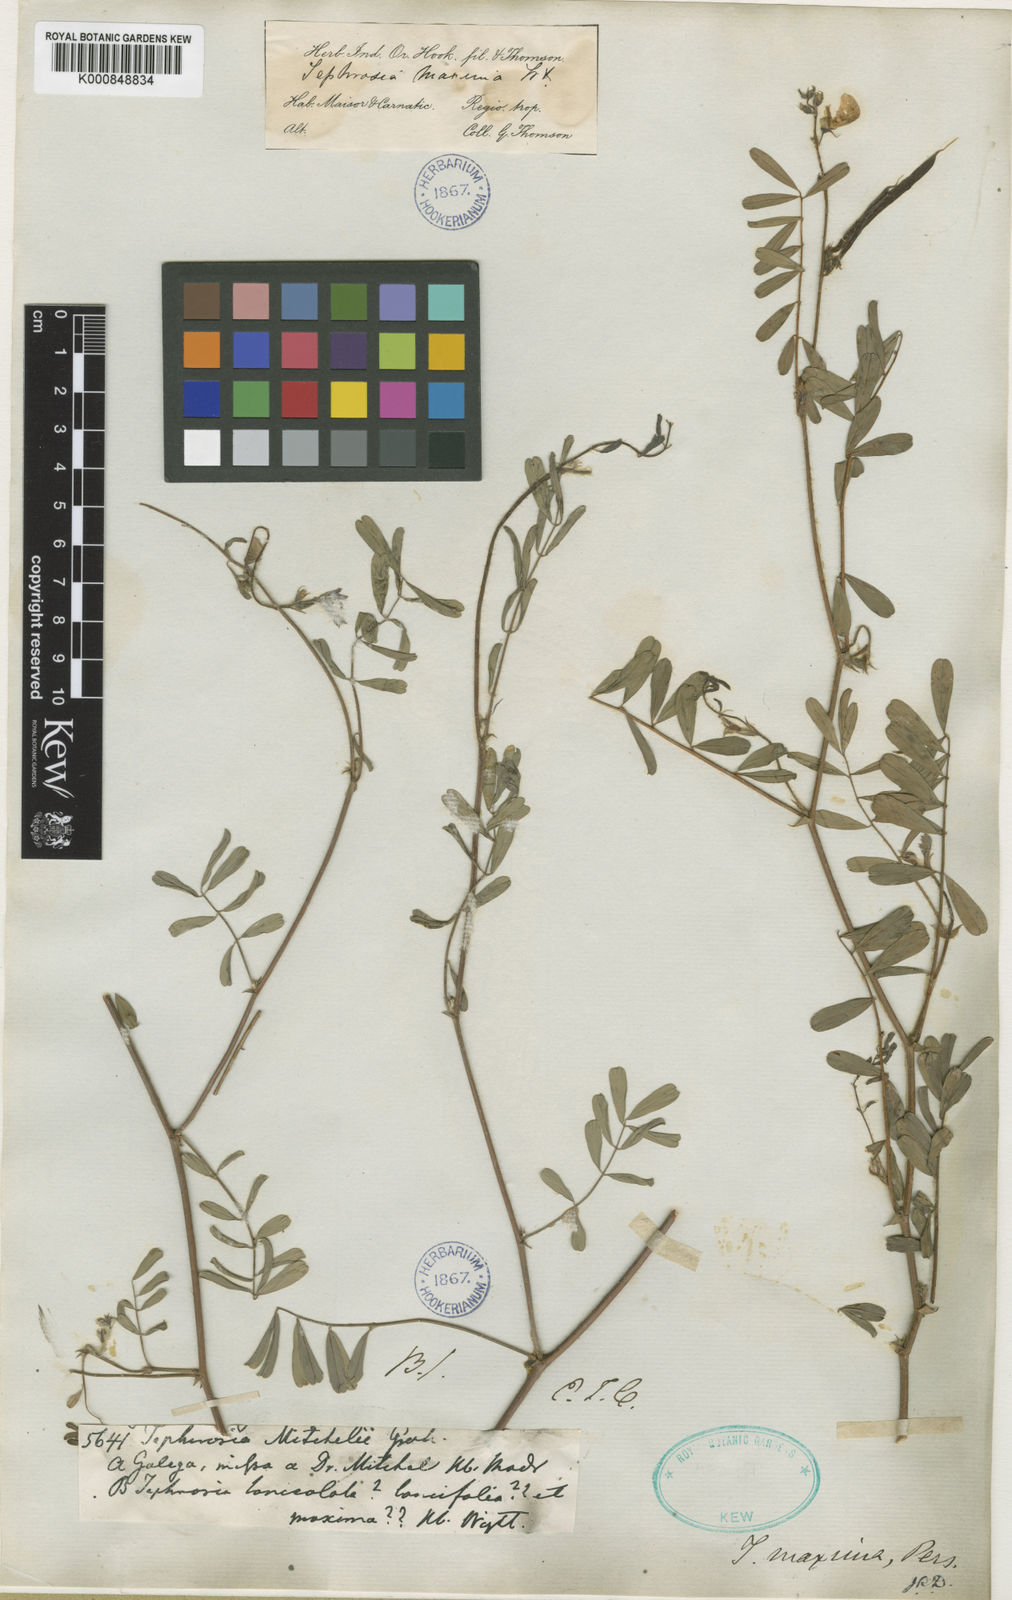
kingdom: Plantae
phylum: Tracheophyta
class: Magnoliopsida
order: Fabales
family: Fabaceae
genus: Tephrosia
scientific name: Tephrosia maxima
